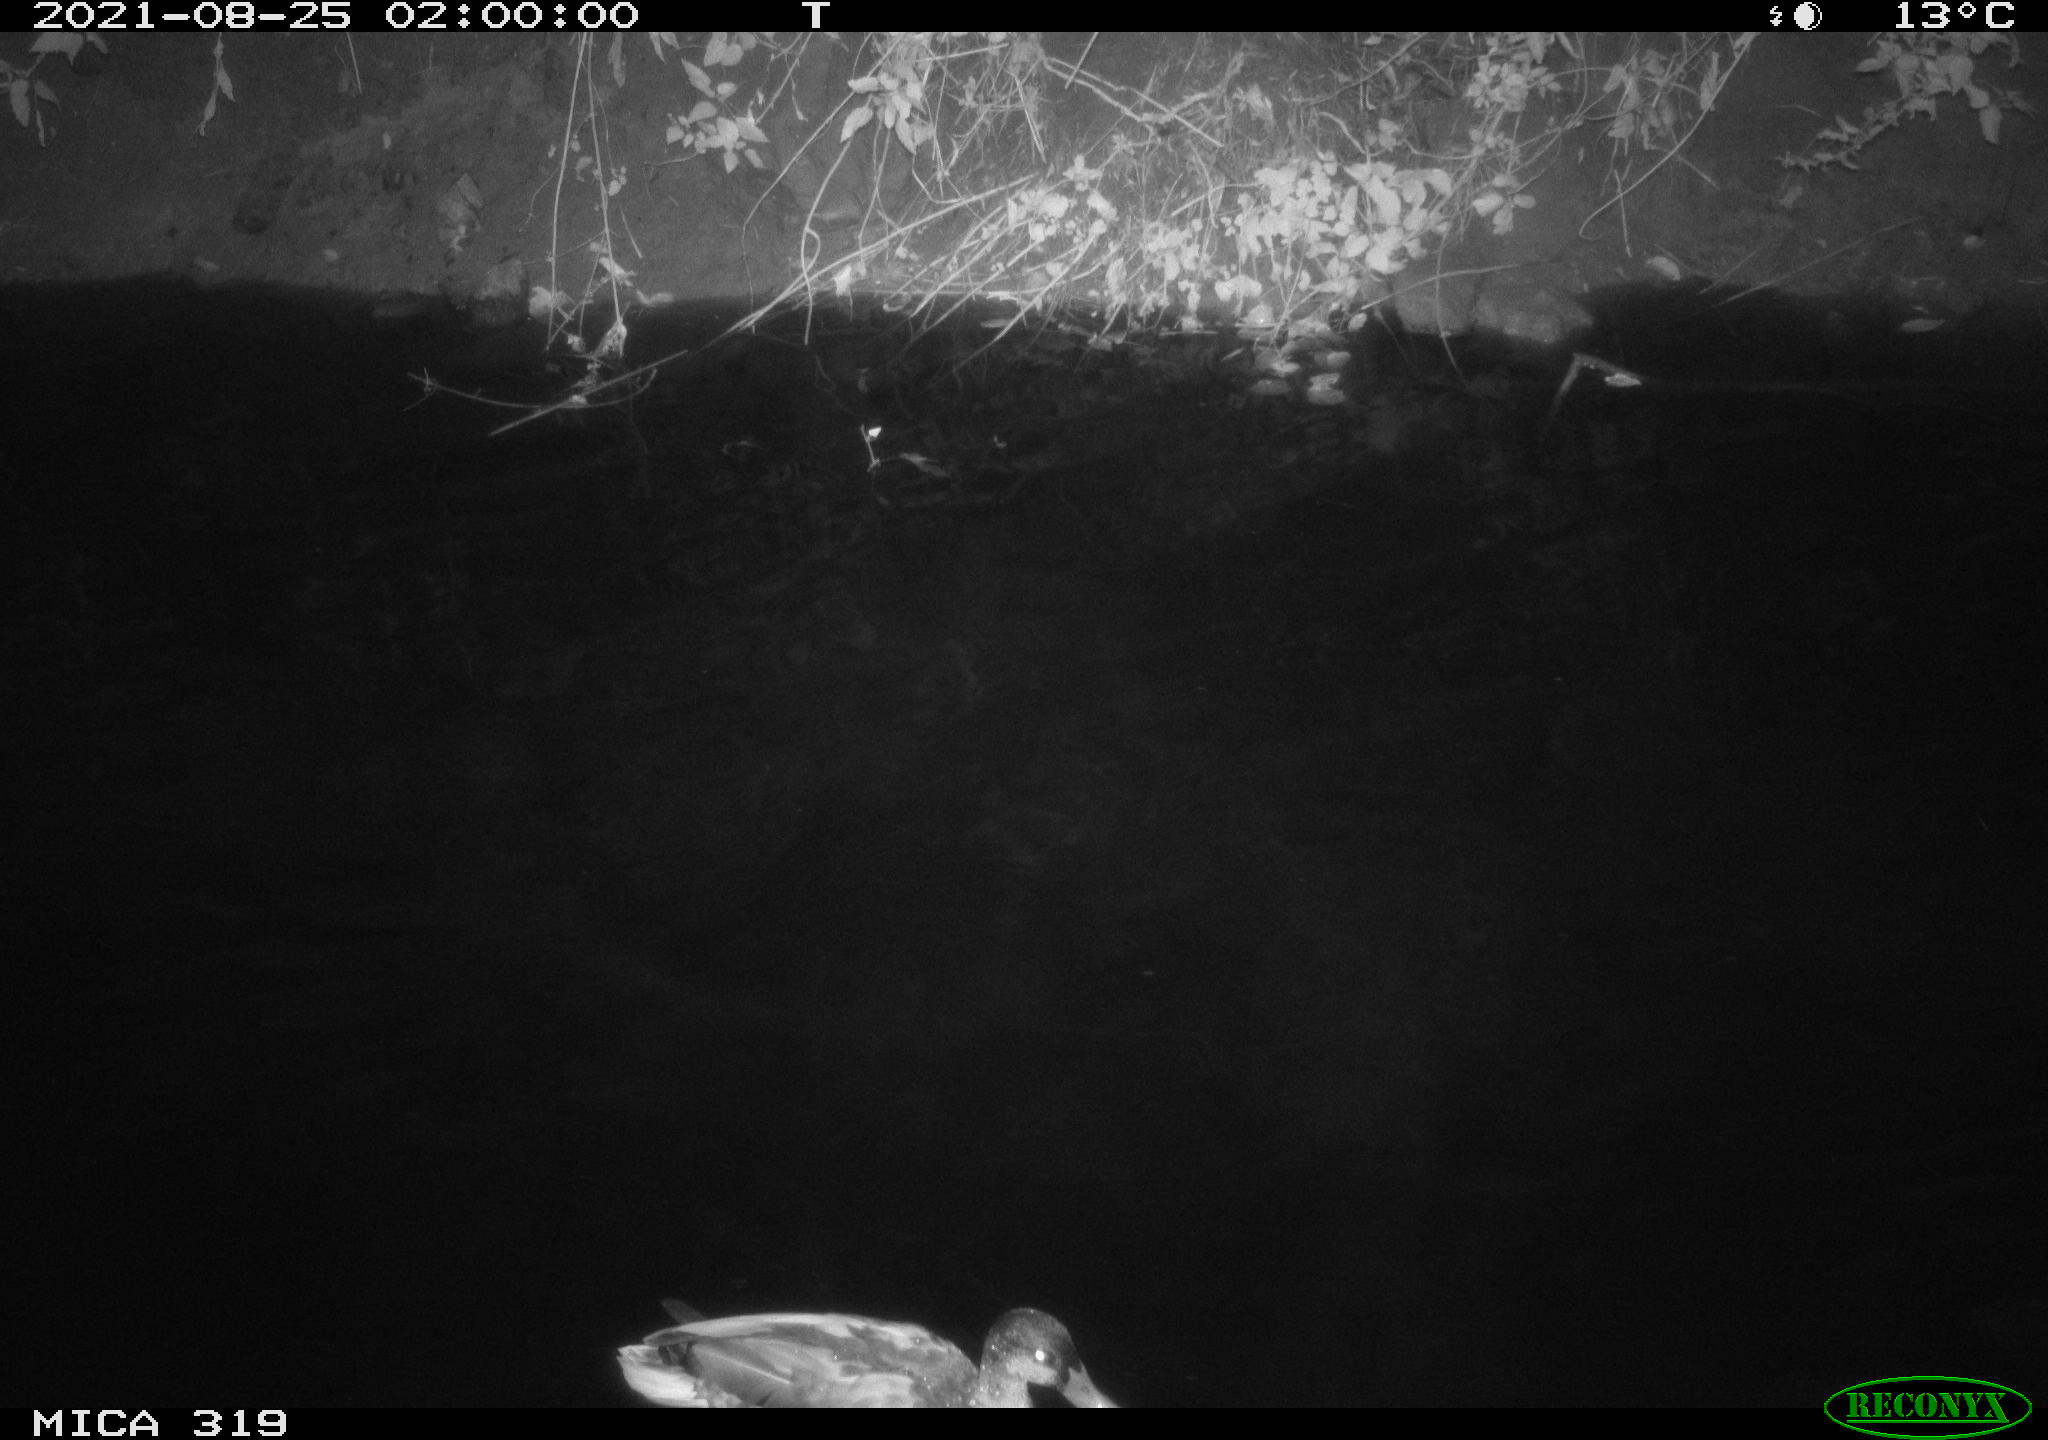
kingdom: Animalia
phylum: Chordata
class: Aves
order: Anseriformes
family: Anatidae
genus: Mareca
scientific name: Mareca strepera
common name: Gadwall
